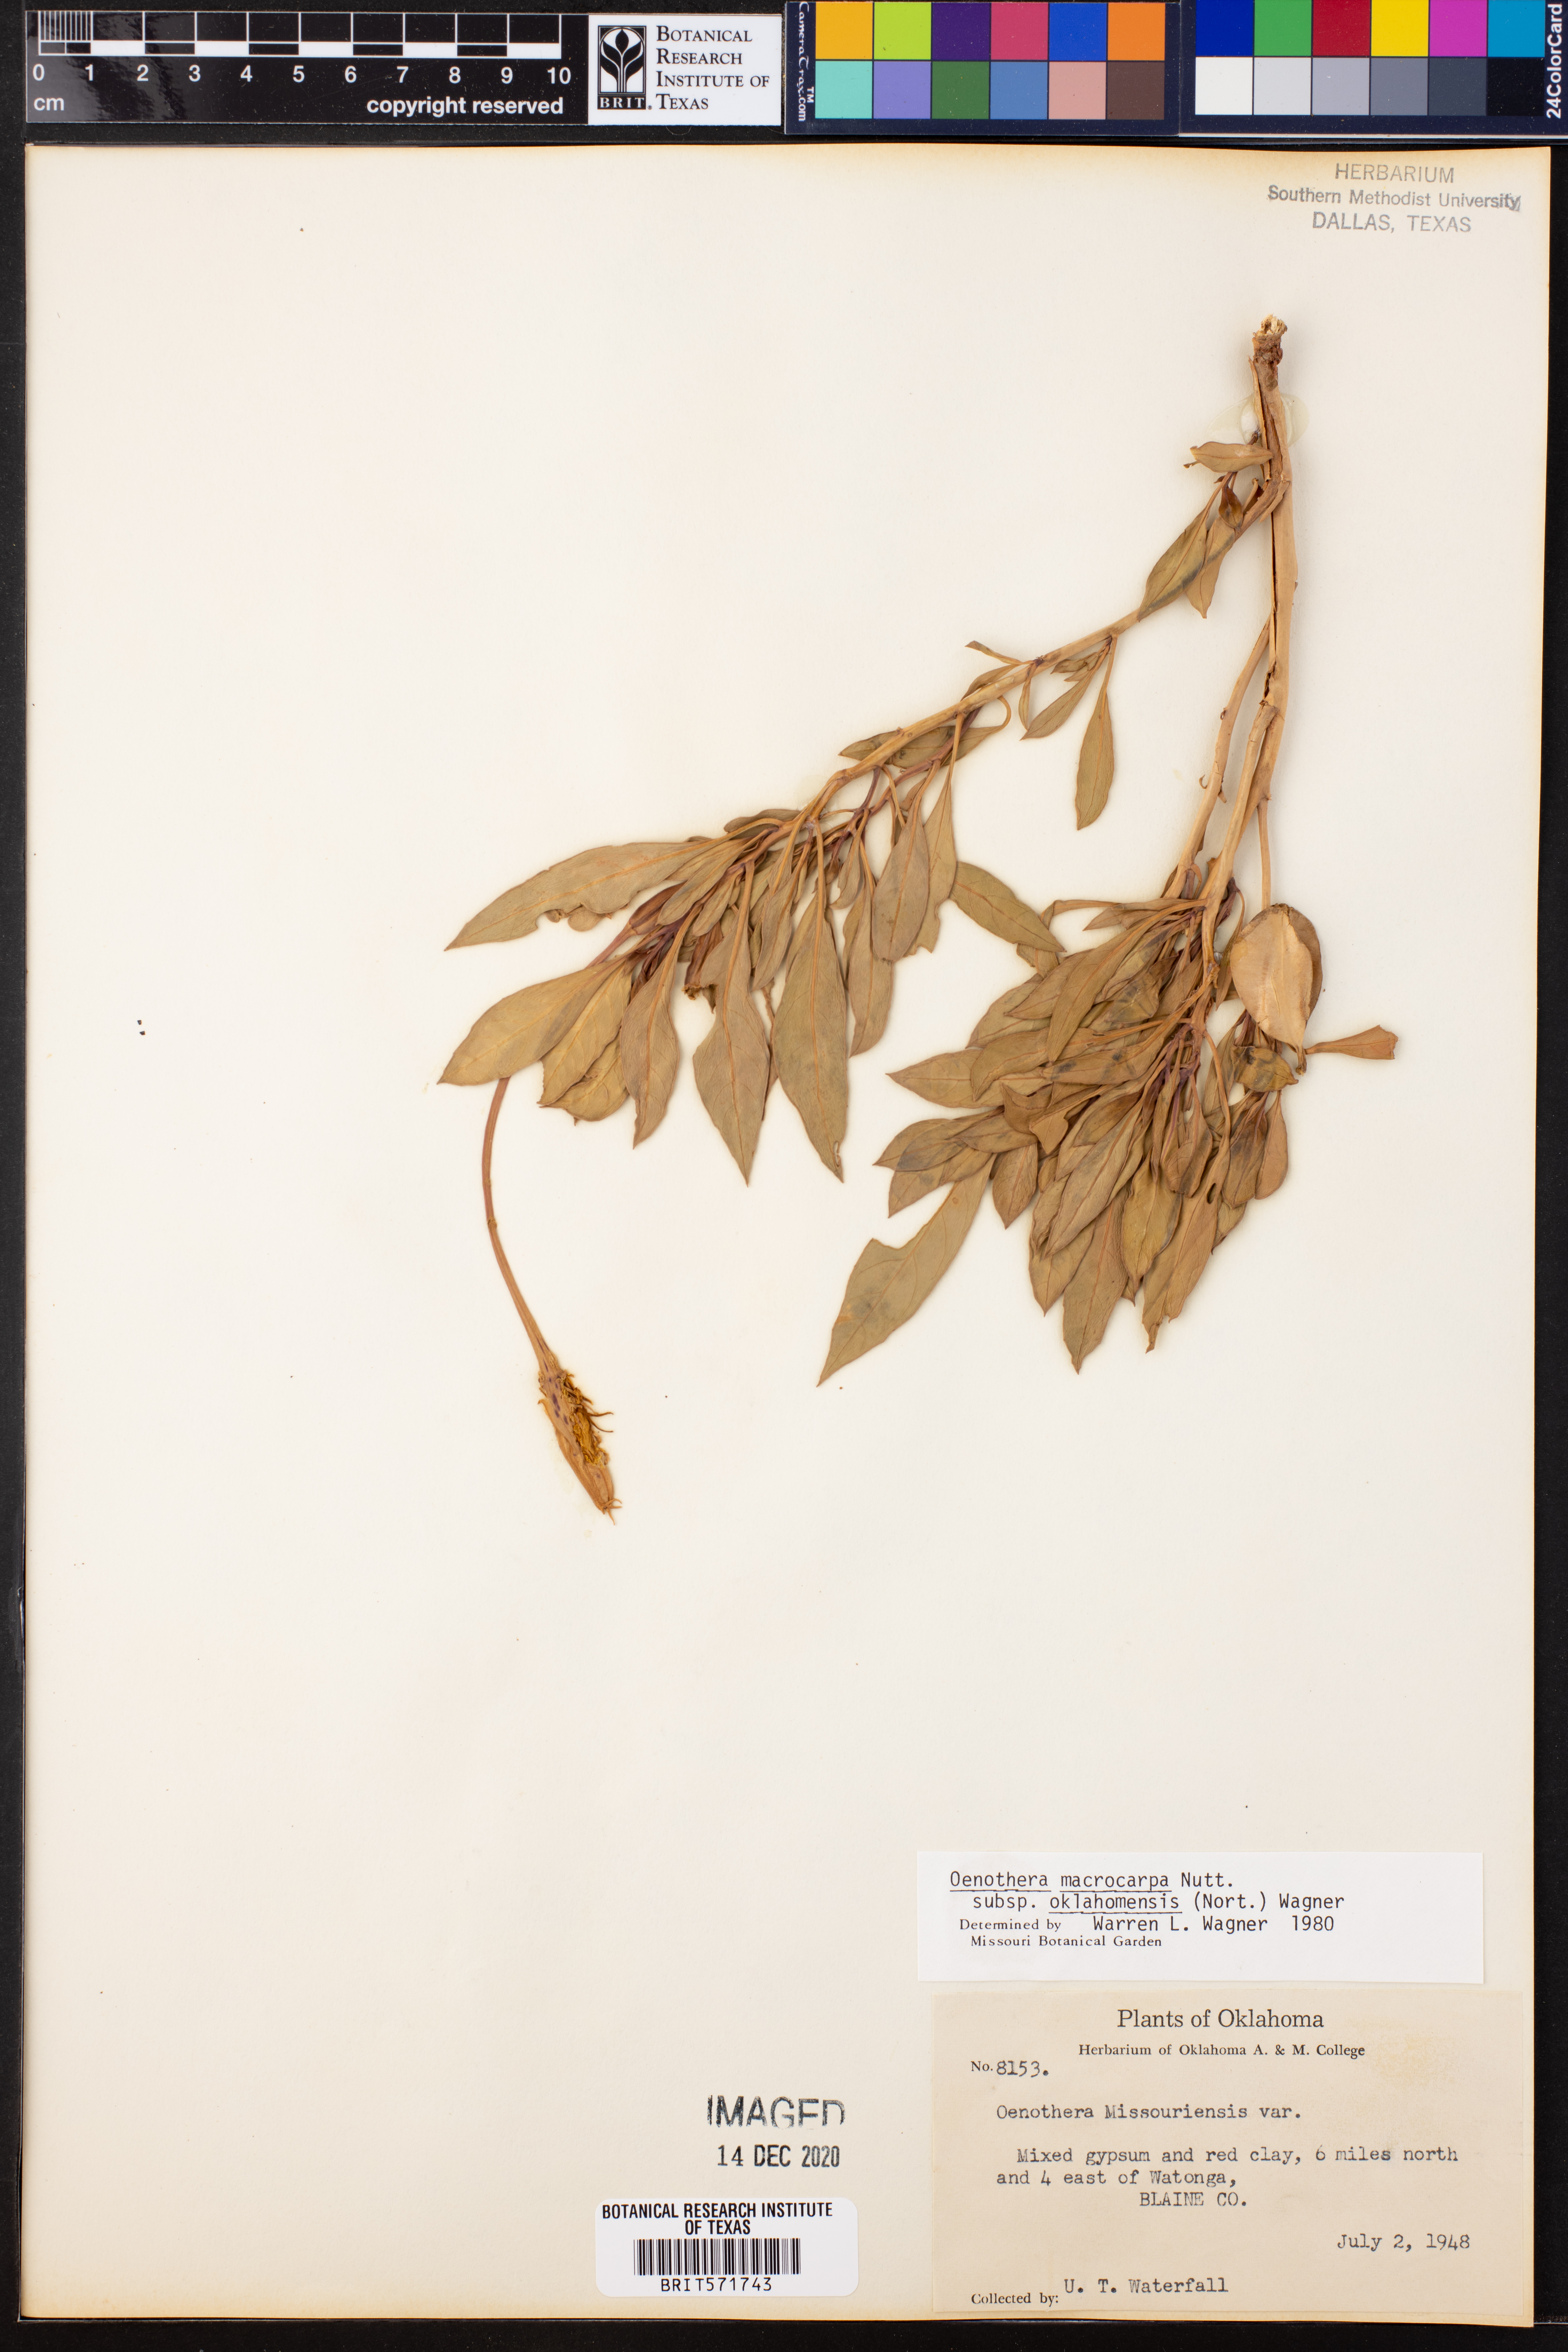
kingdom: Plantae
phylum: Tracheophyta
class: Magnoliopsida
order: Myrtales
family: Onagraceae
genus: Oenothera
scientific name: Oenothera macrocarpa
